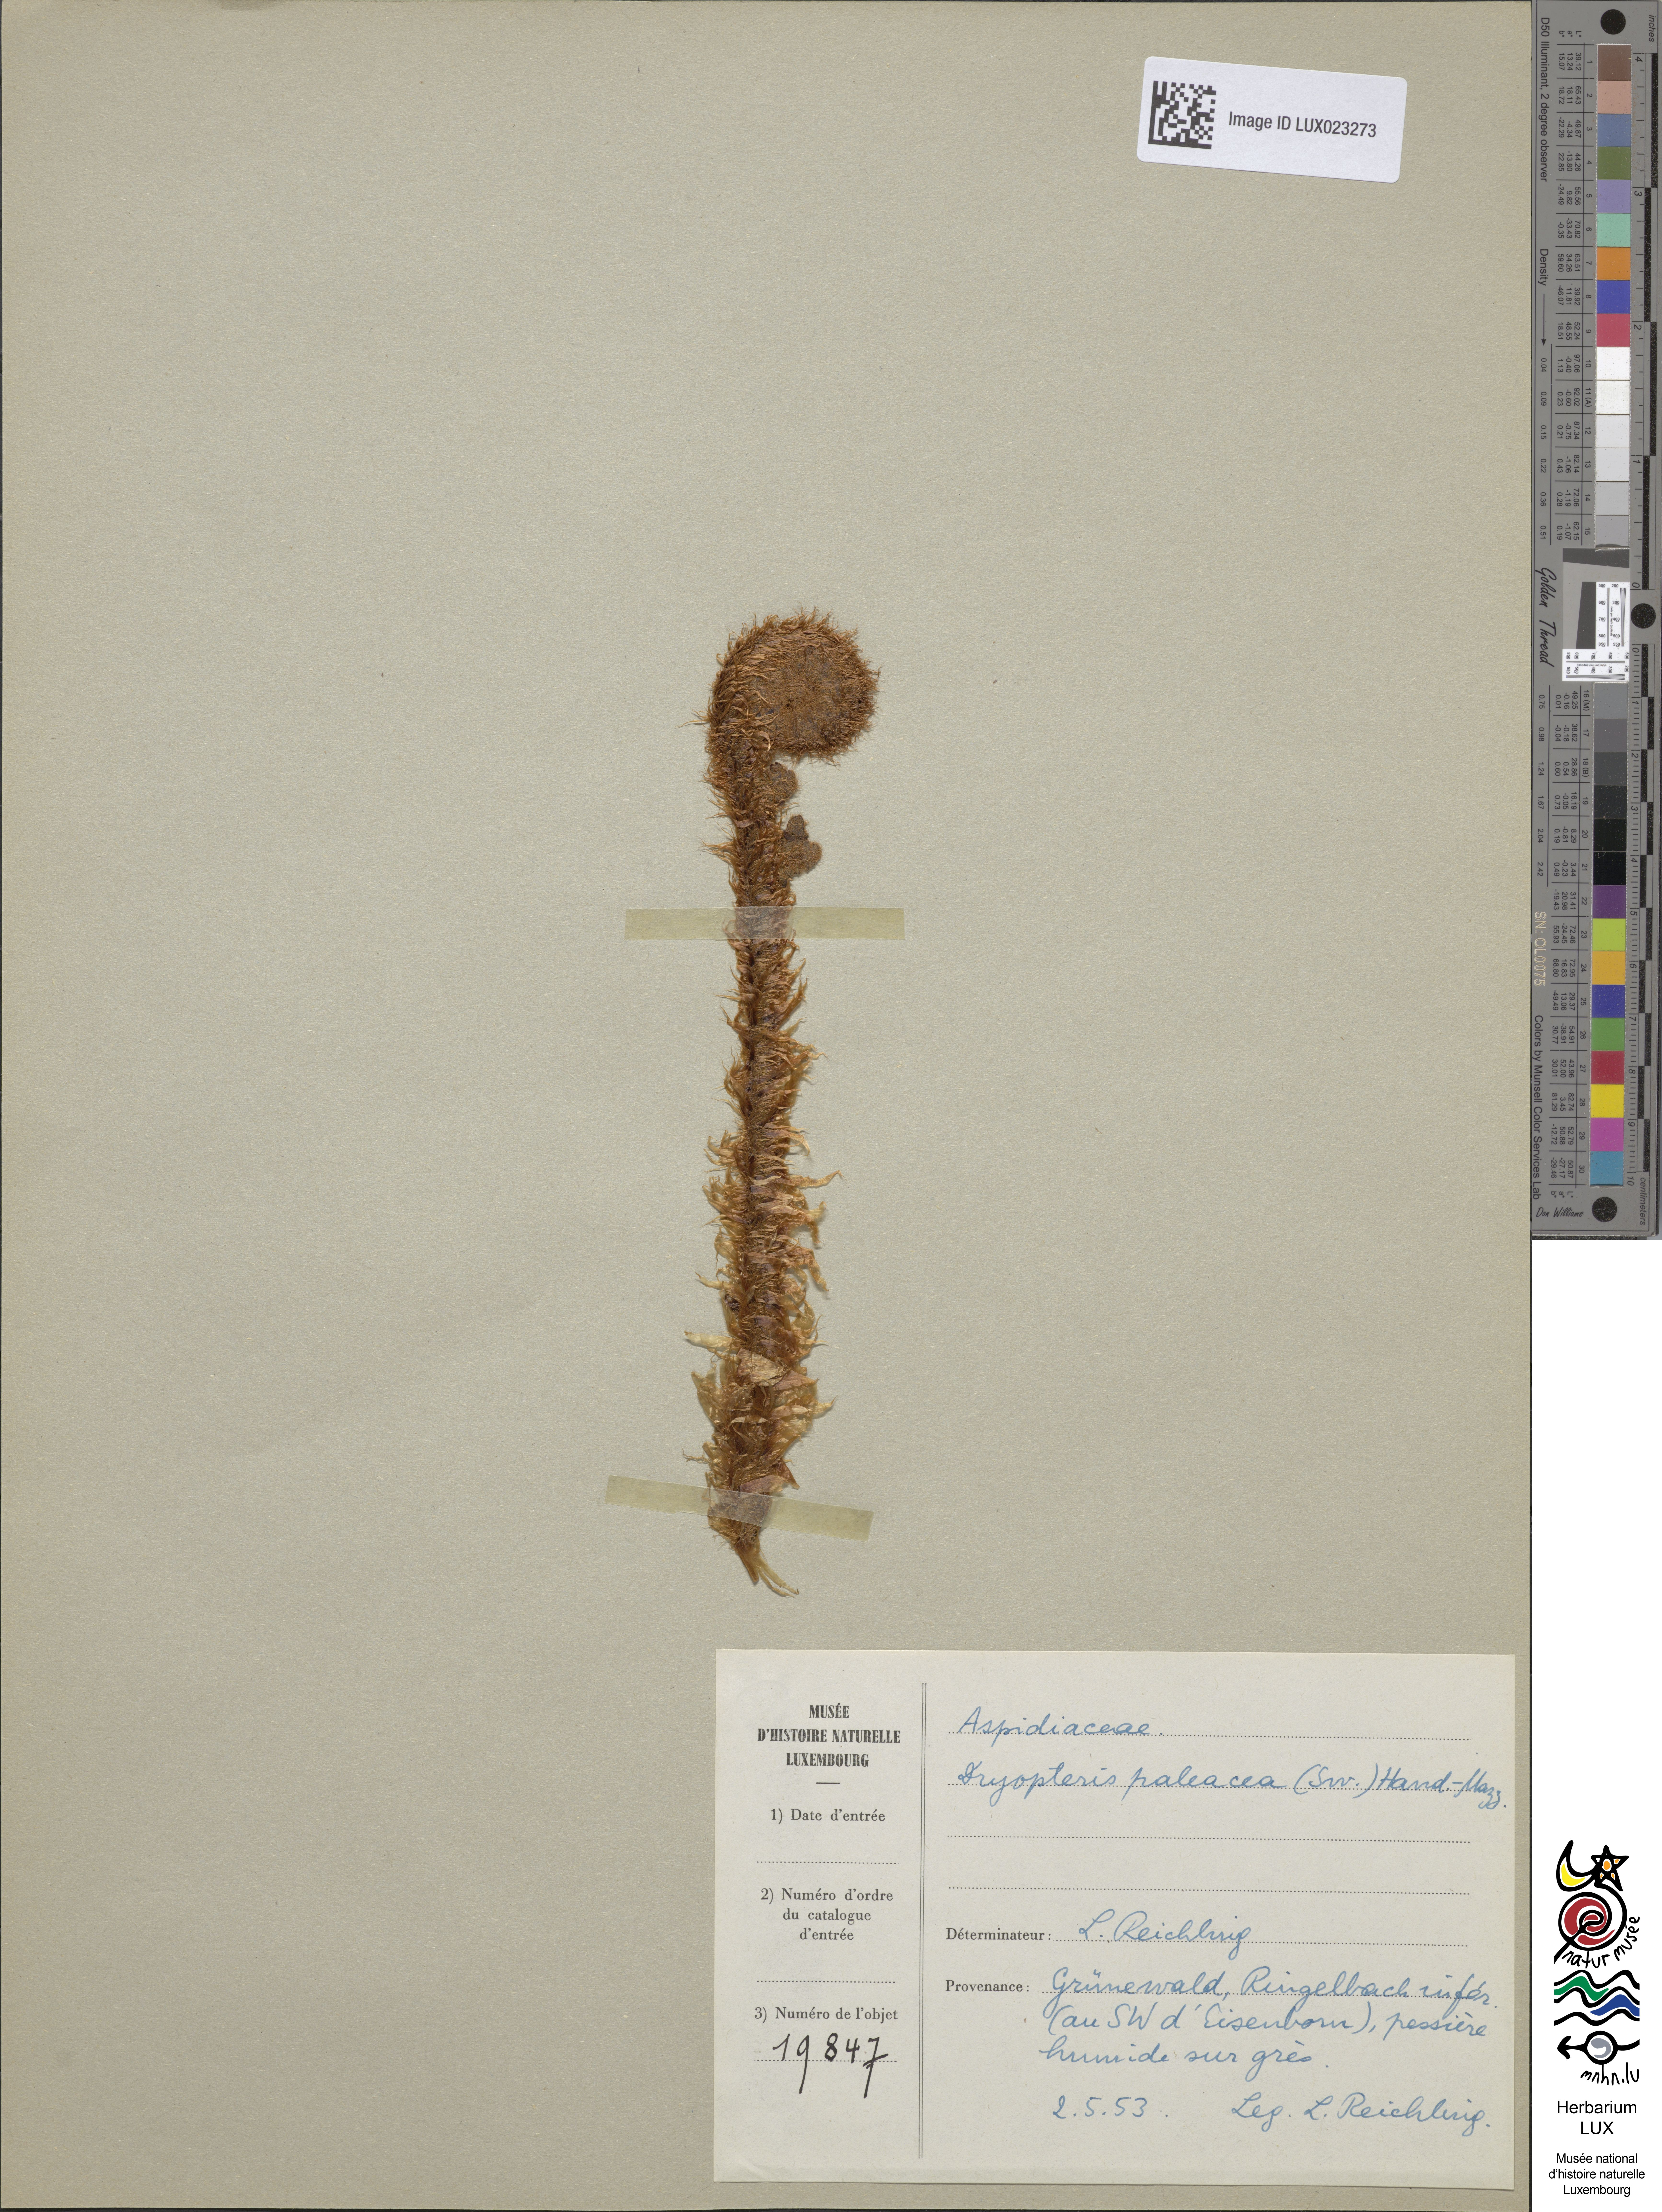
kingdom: Plantae
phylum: Tracheophyta
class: Polypodiopsida
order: Polypodiales
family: Dryopteridaceae
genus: Dryopteris
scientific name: Dryopteris borreri
